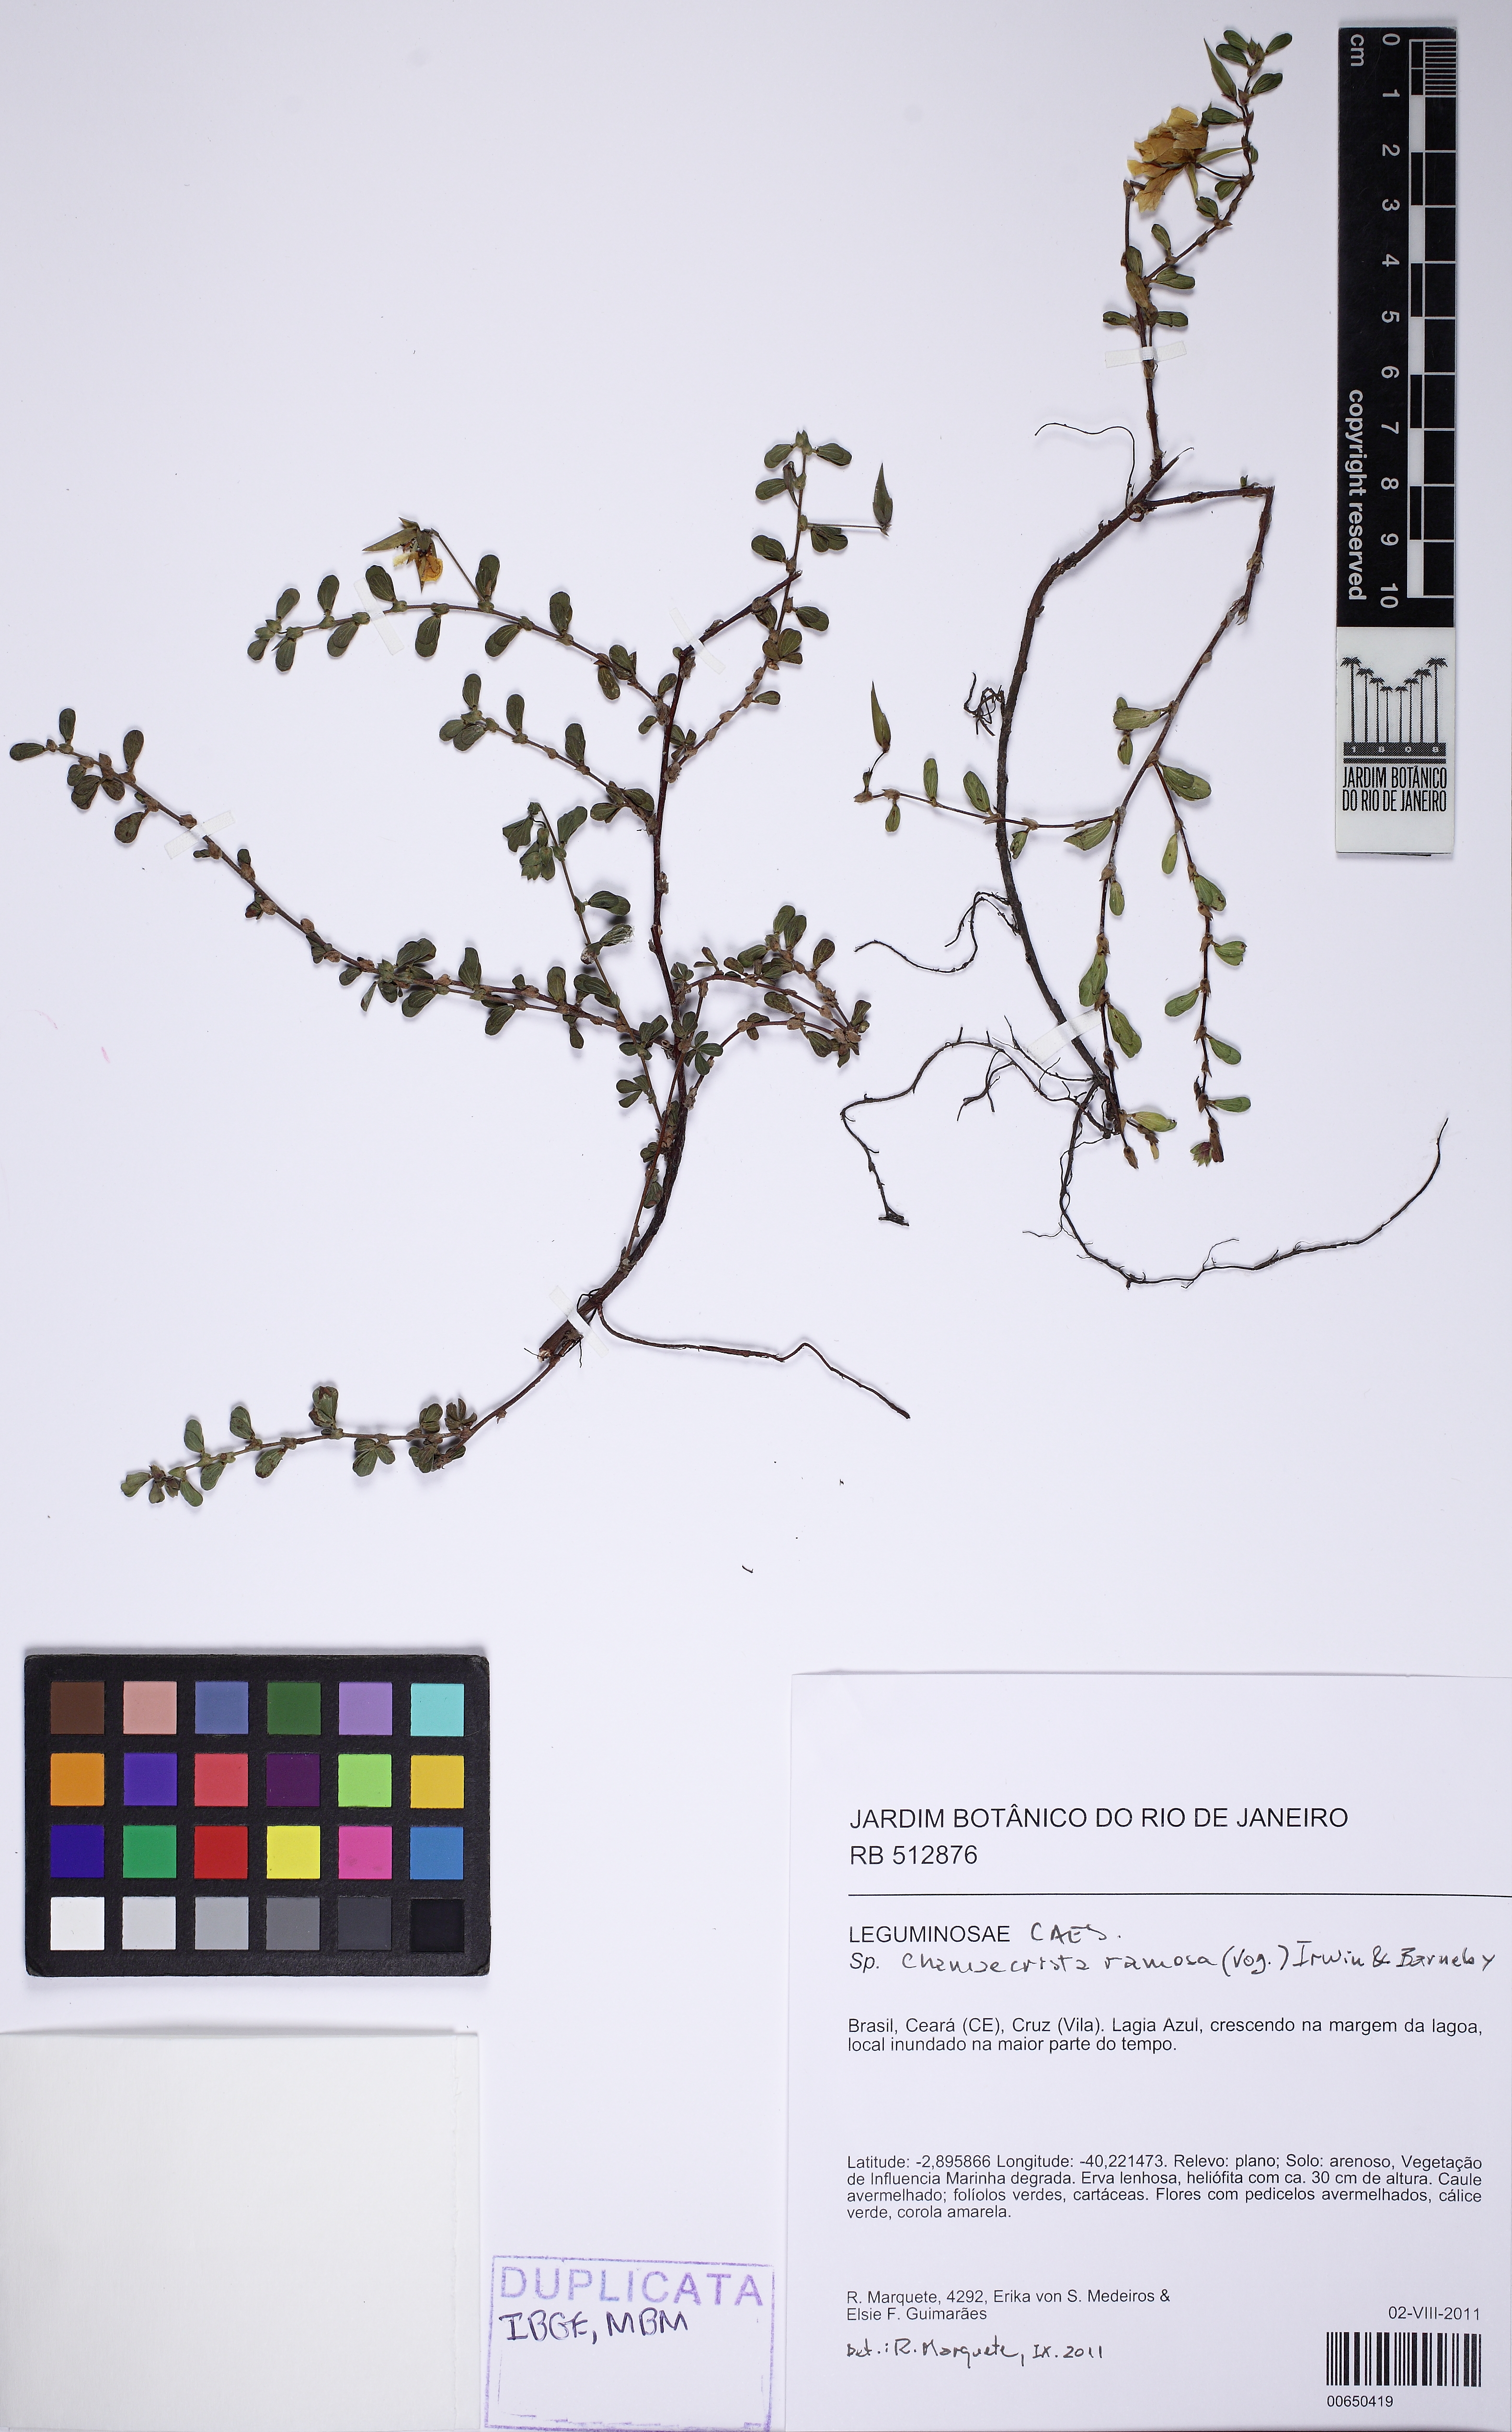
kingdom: Plantae
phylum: Tracheophyta
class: Magnoliopsida
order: Fabales
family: Fabaceae
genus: Chamaecrista
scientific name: Chamaecrista ramosa
